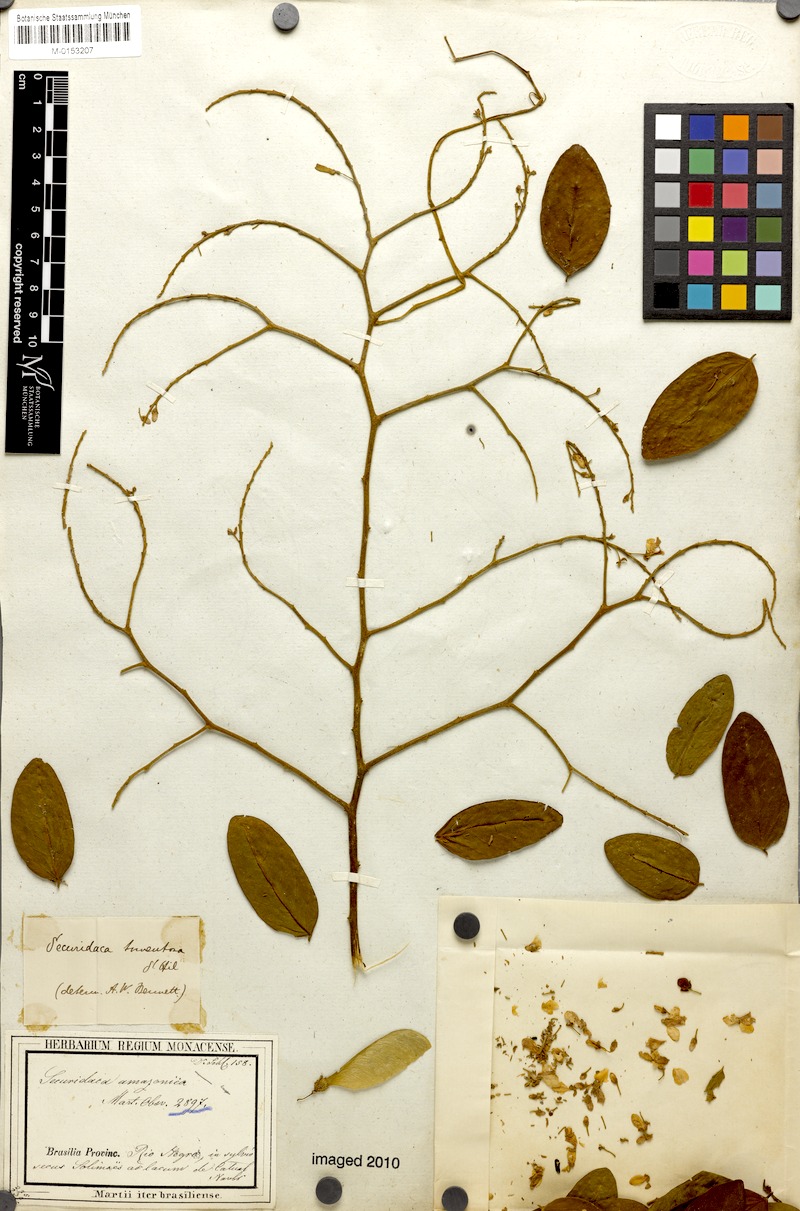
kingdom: Plantae
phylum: Tracheophyta
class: Magnoliopsida
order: Fabales
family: Polygalaceae
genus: Securidaca
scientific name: Securidaca tomentosa
